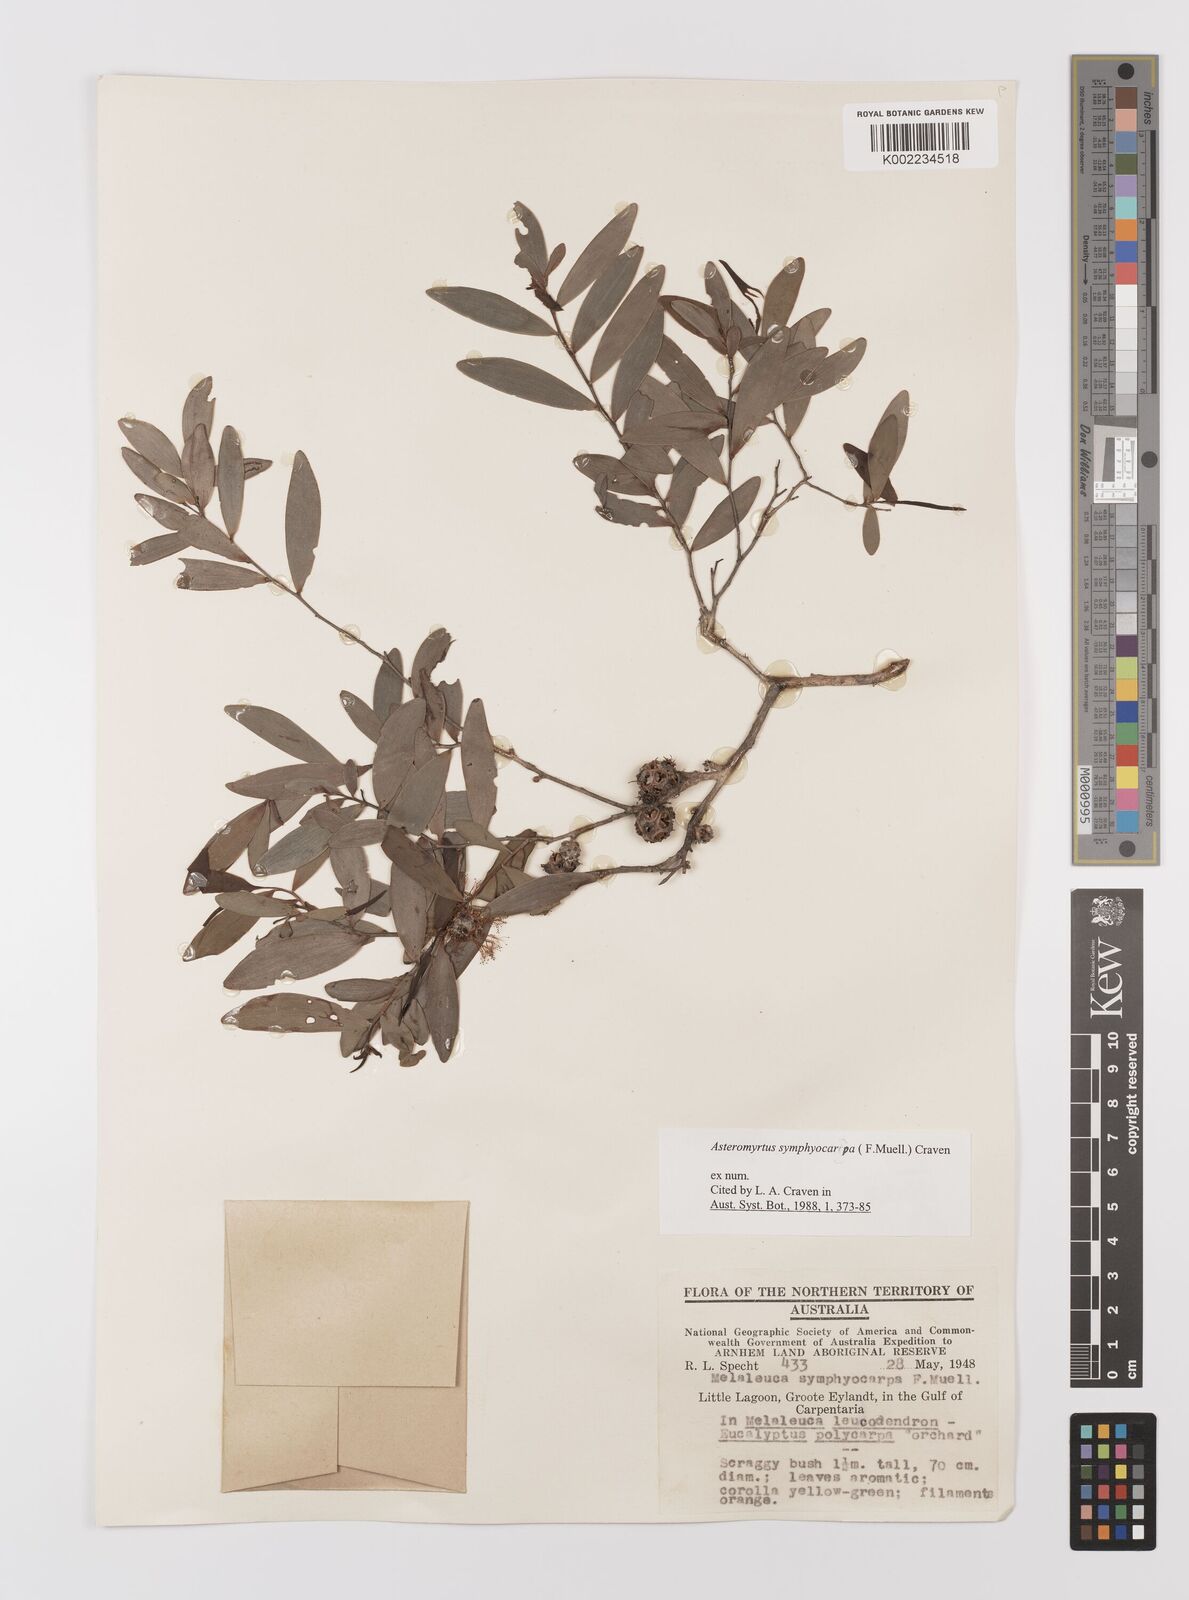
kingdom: Plantae
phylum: Tracheophyta
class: Magnoliopsida
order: Myrtales
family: Myrtaceae
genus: Asteromyrtus
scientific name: Asteromyrtus symphyocarpa
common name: Liniment-tree
